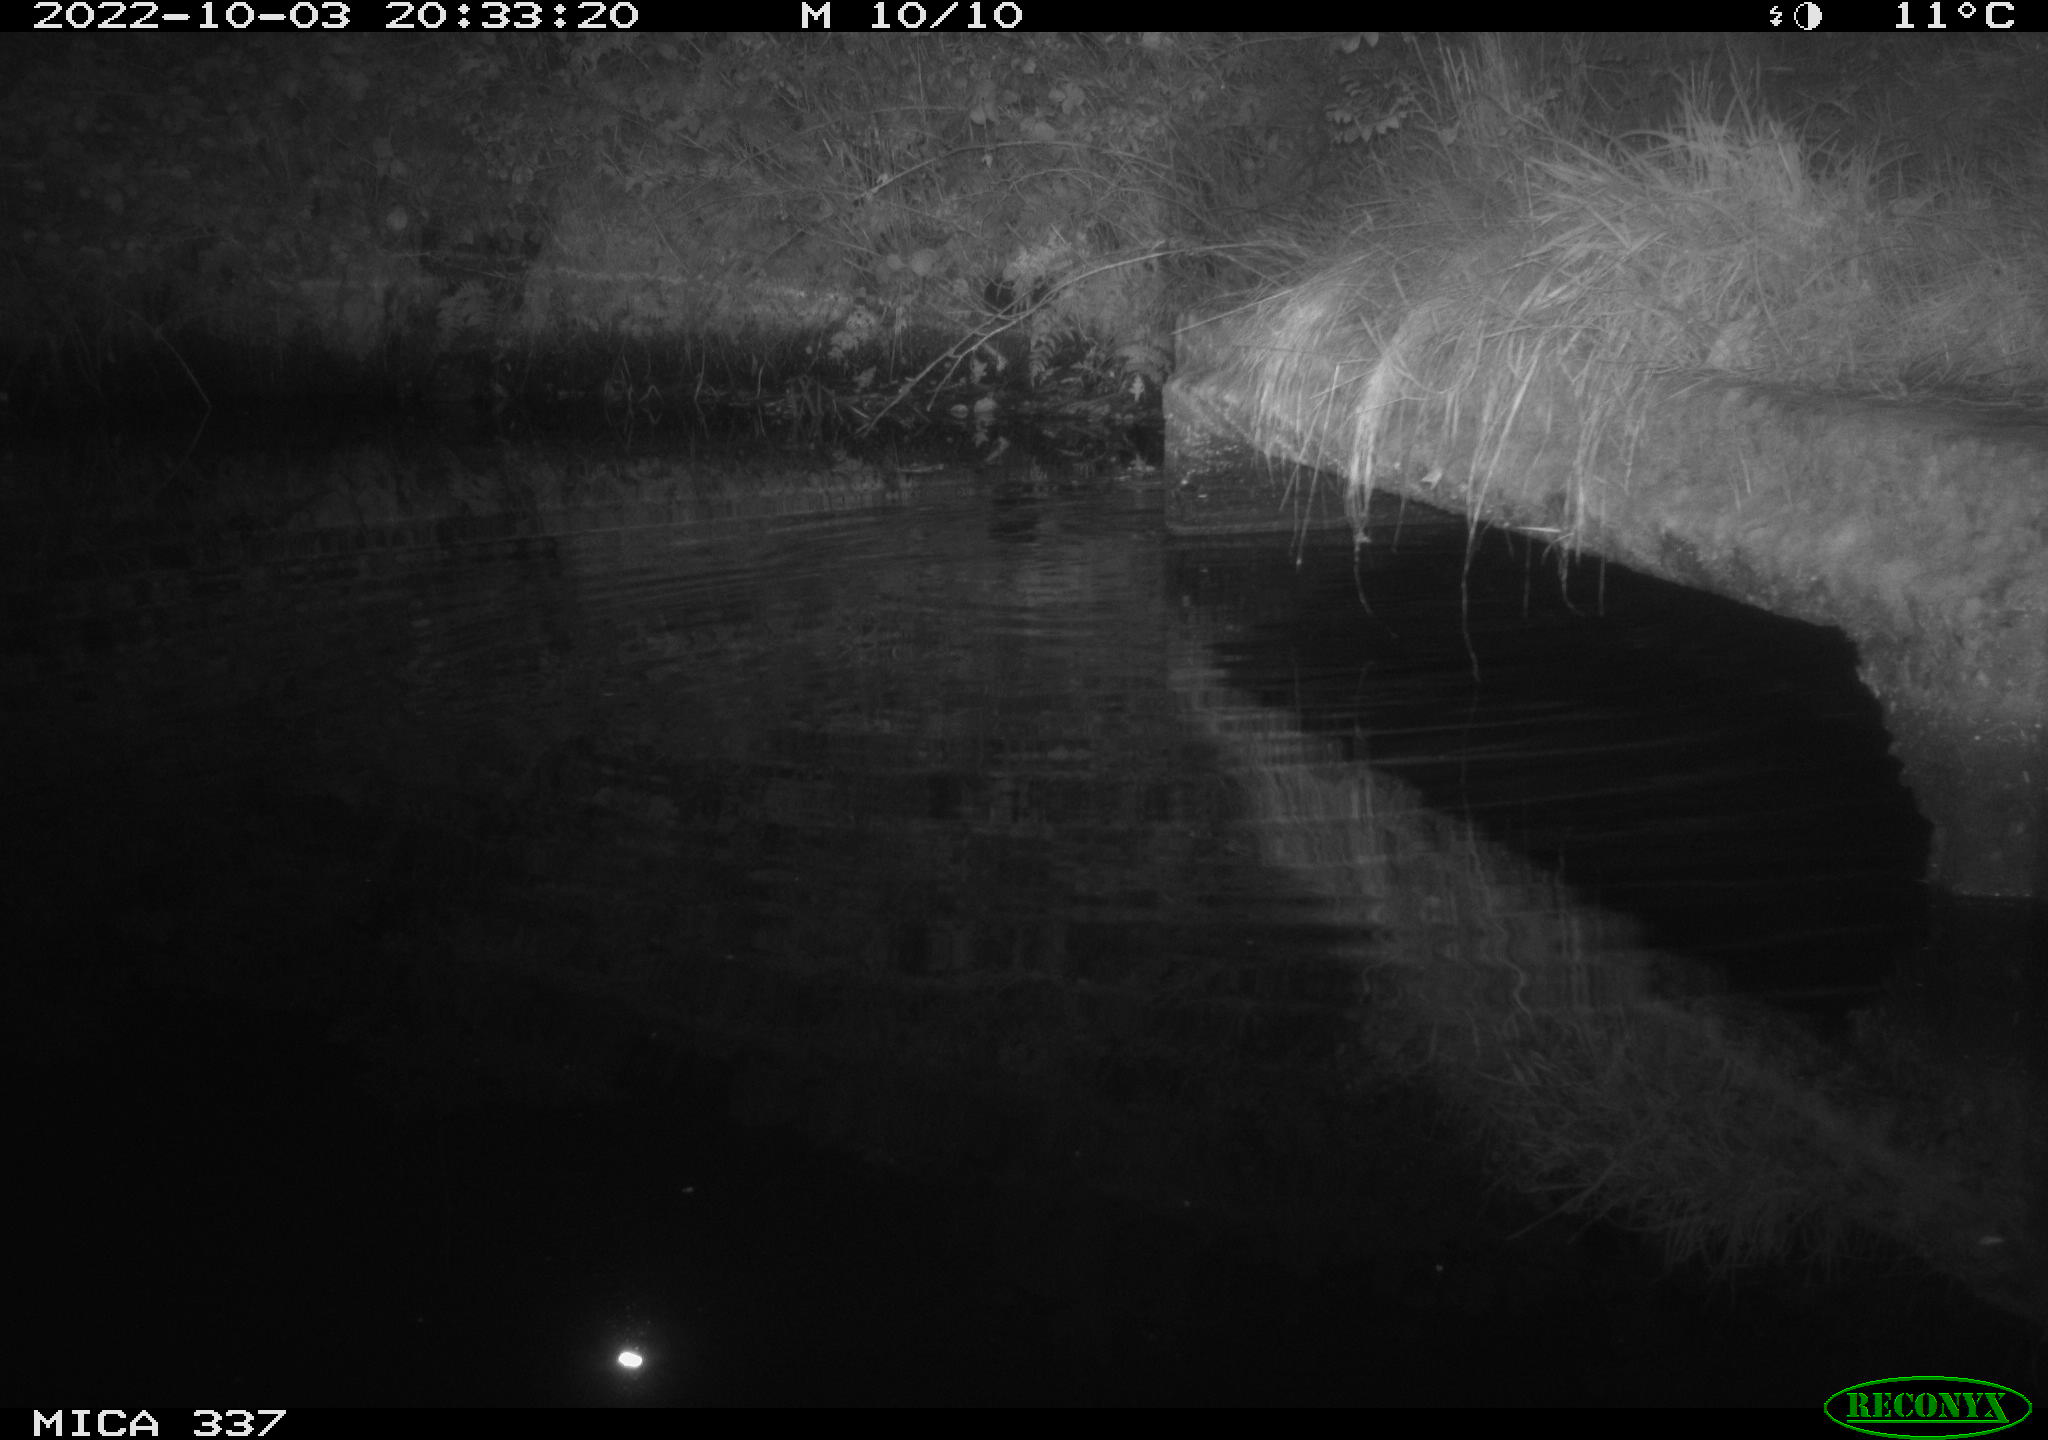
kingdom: Animalia
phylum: Chordata
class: Mammalia
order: Rodentia
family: Muridae
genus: Rattus
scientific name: Rattus norvegicus
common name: Brown rat
